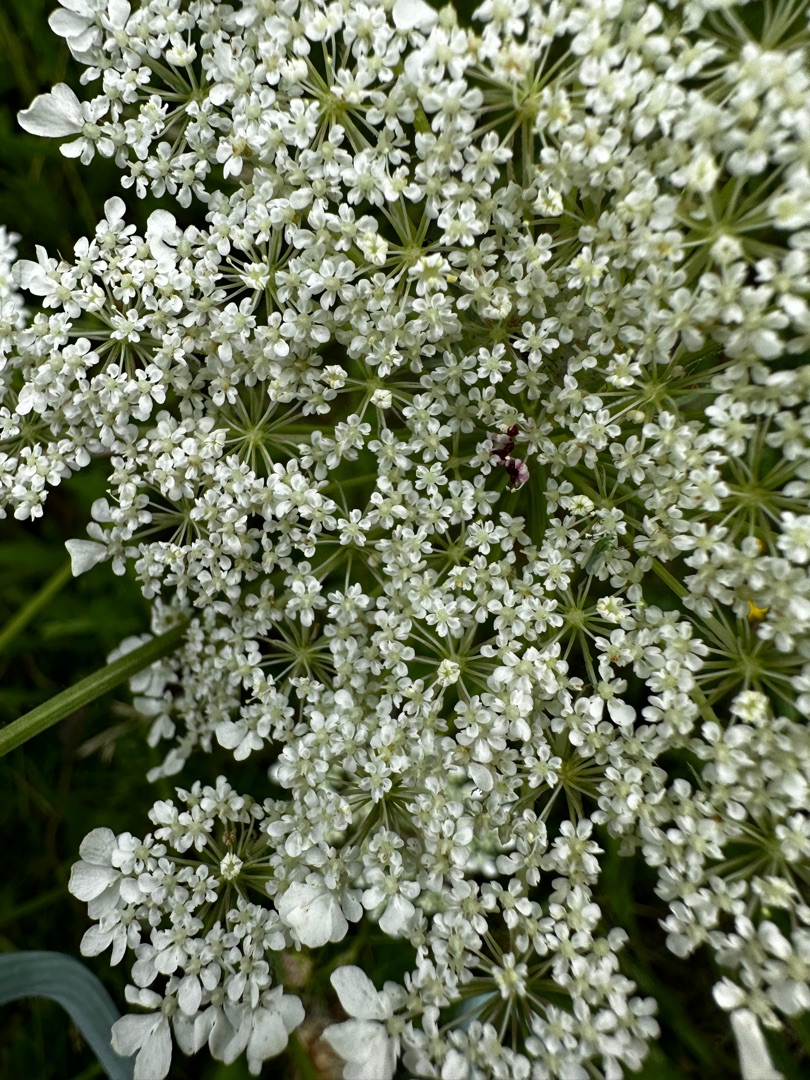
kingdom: Plantae
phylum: Tracheophyta
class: Magnoliopsida
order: Apiales
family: Apiaceae
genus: Daucus
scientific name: Daucus carota
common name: Vild gulerod
